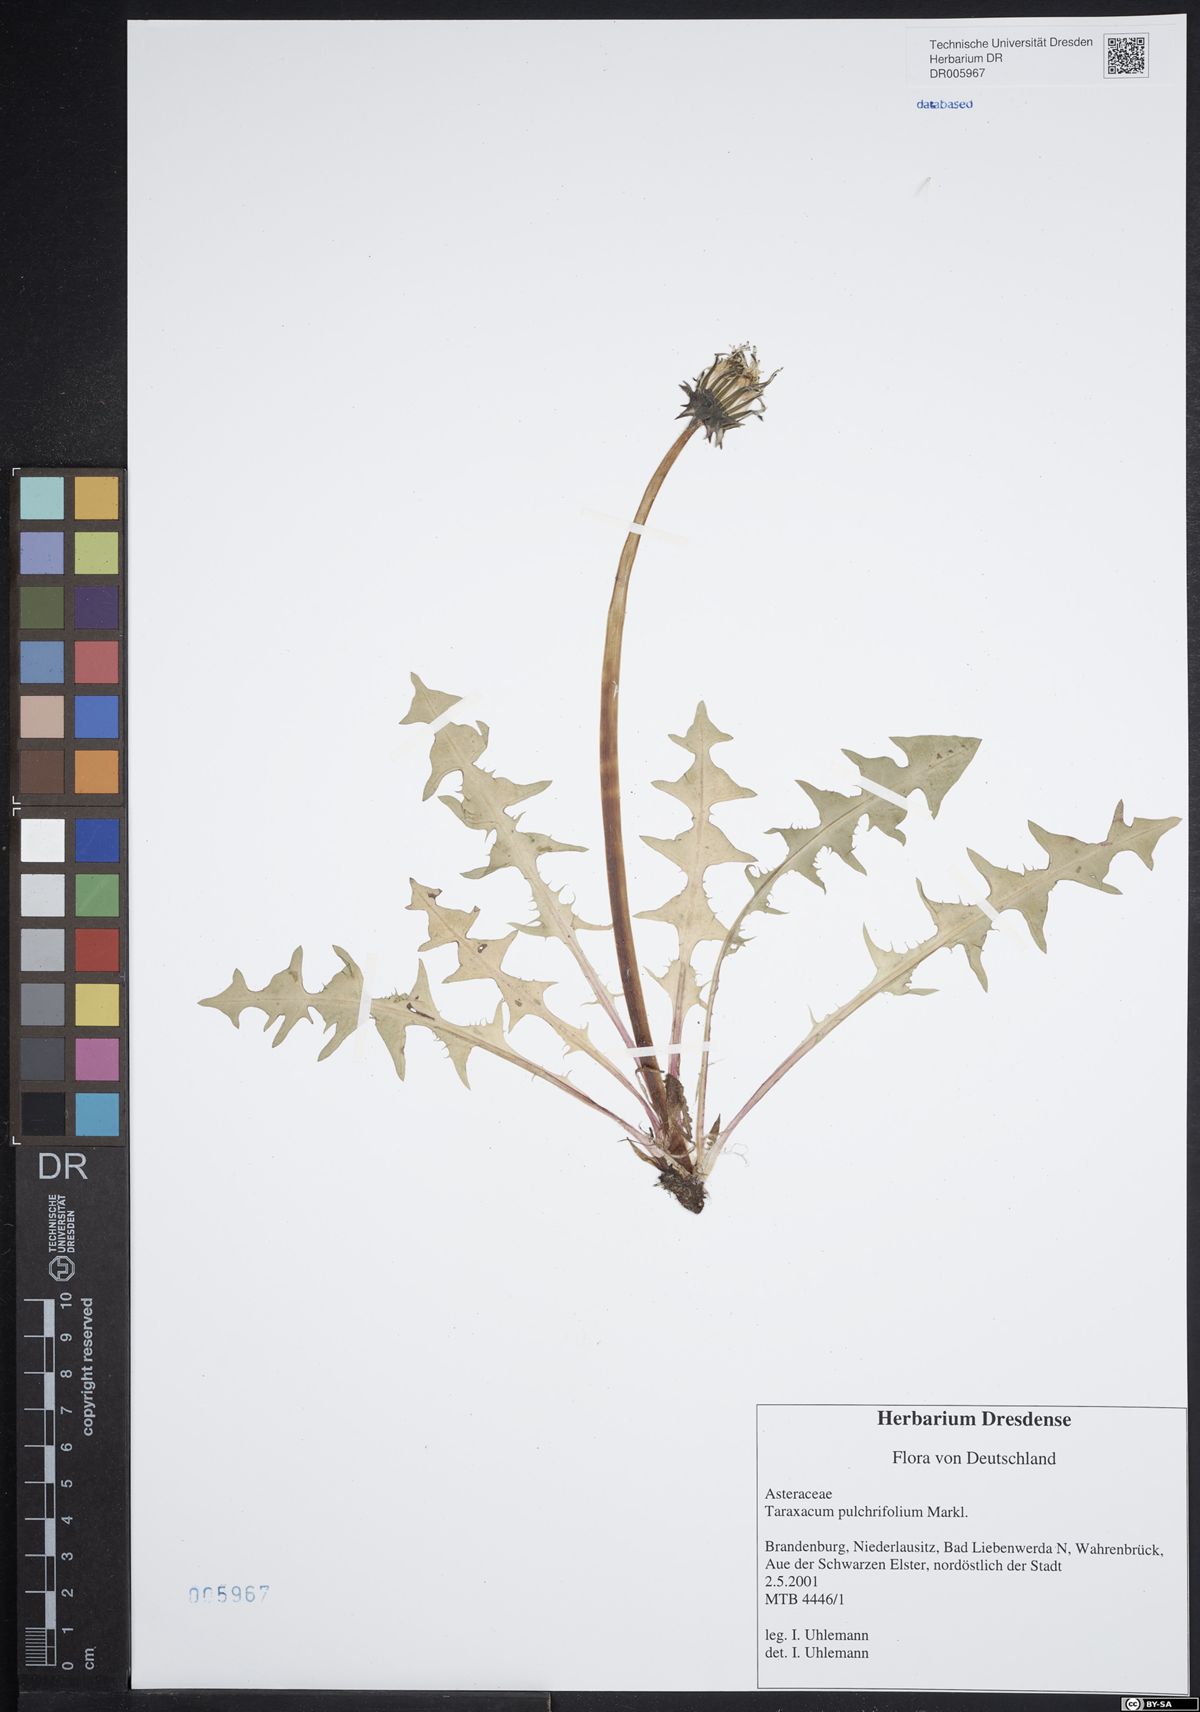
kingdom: Plantae
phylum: Tracheophyta
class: Magnoliopsida
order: Asterales
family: Asteraceae
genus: Taraxacum
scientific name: Taraxacum pulchrifolium
